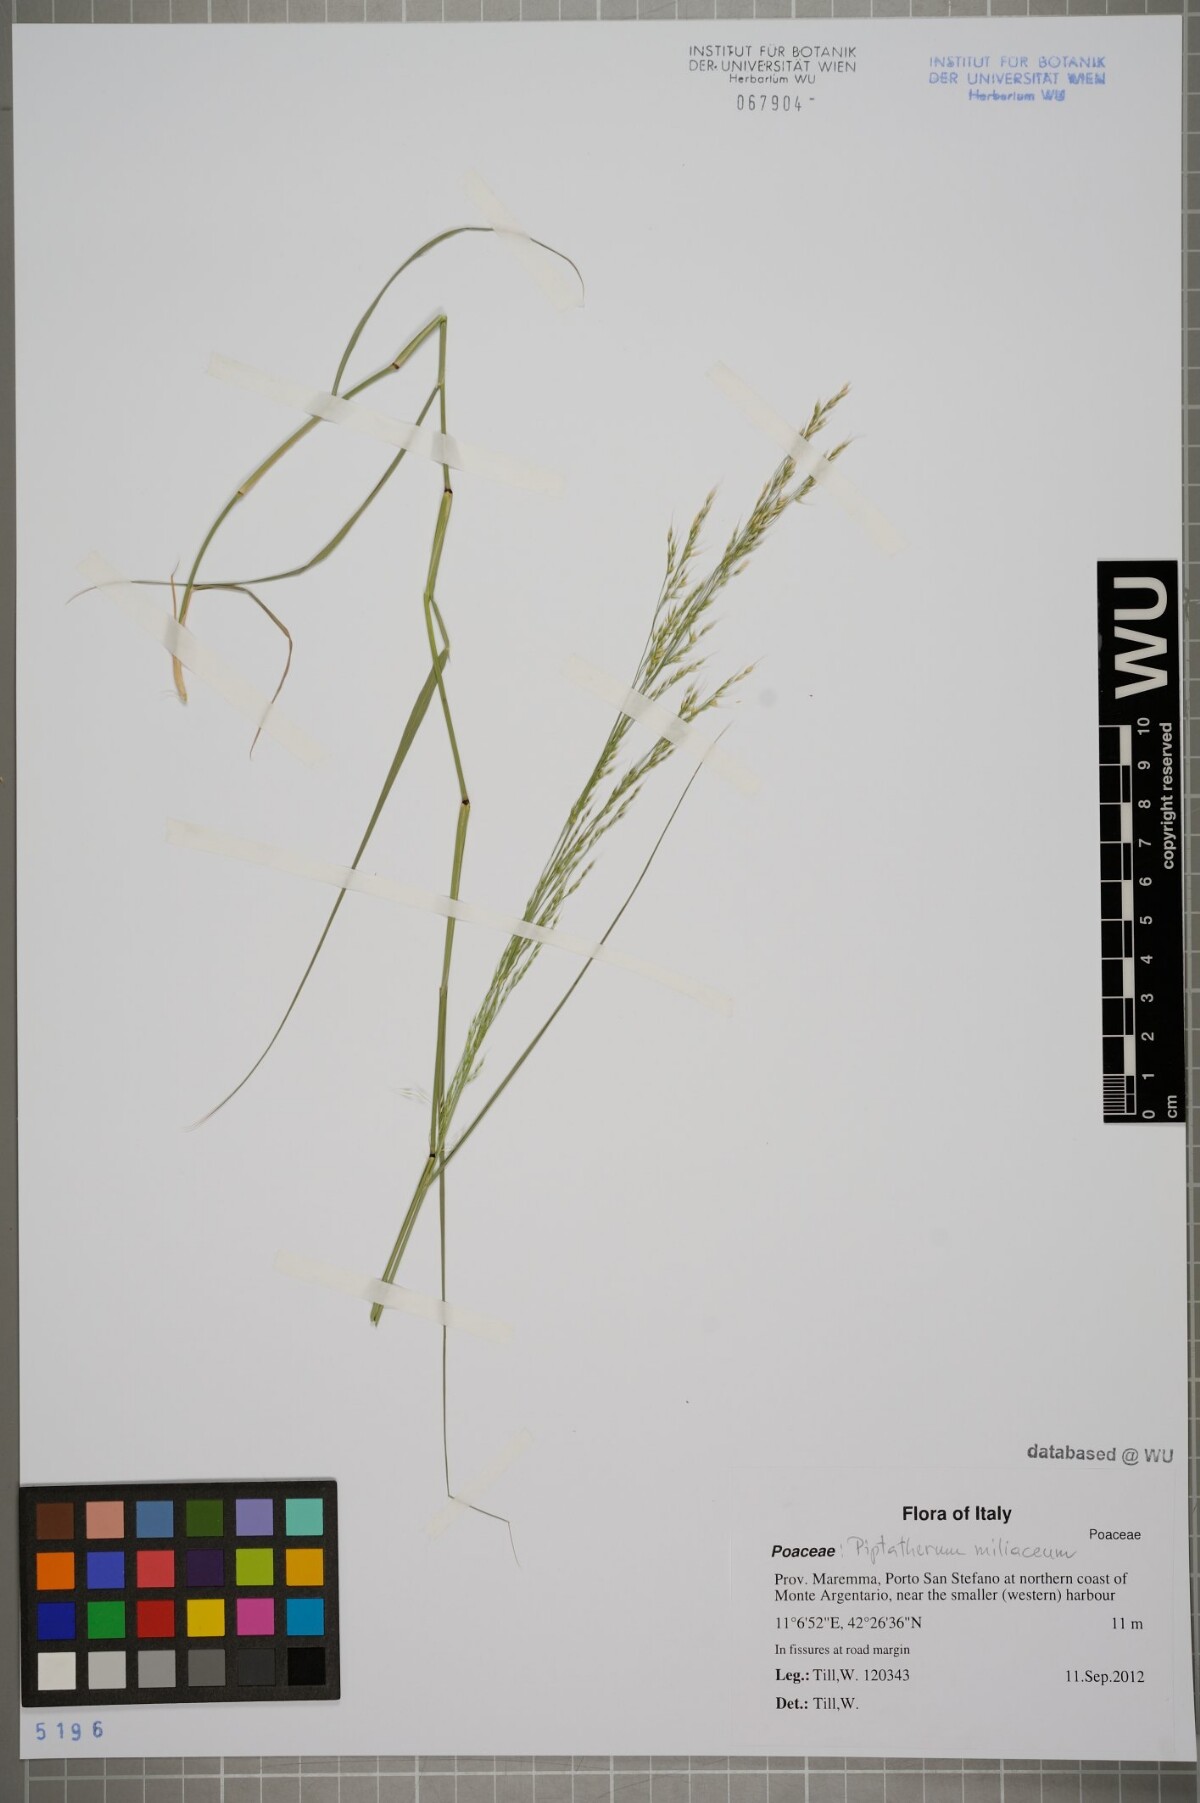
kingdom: Plantae
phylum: Tracheophyta
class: Liliopsida
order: Poales
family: Poaceae
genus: Oloptum
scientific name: Oloptum miliaceum
